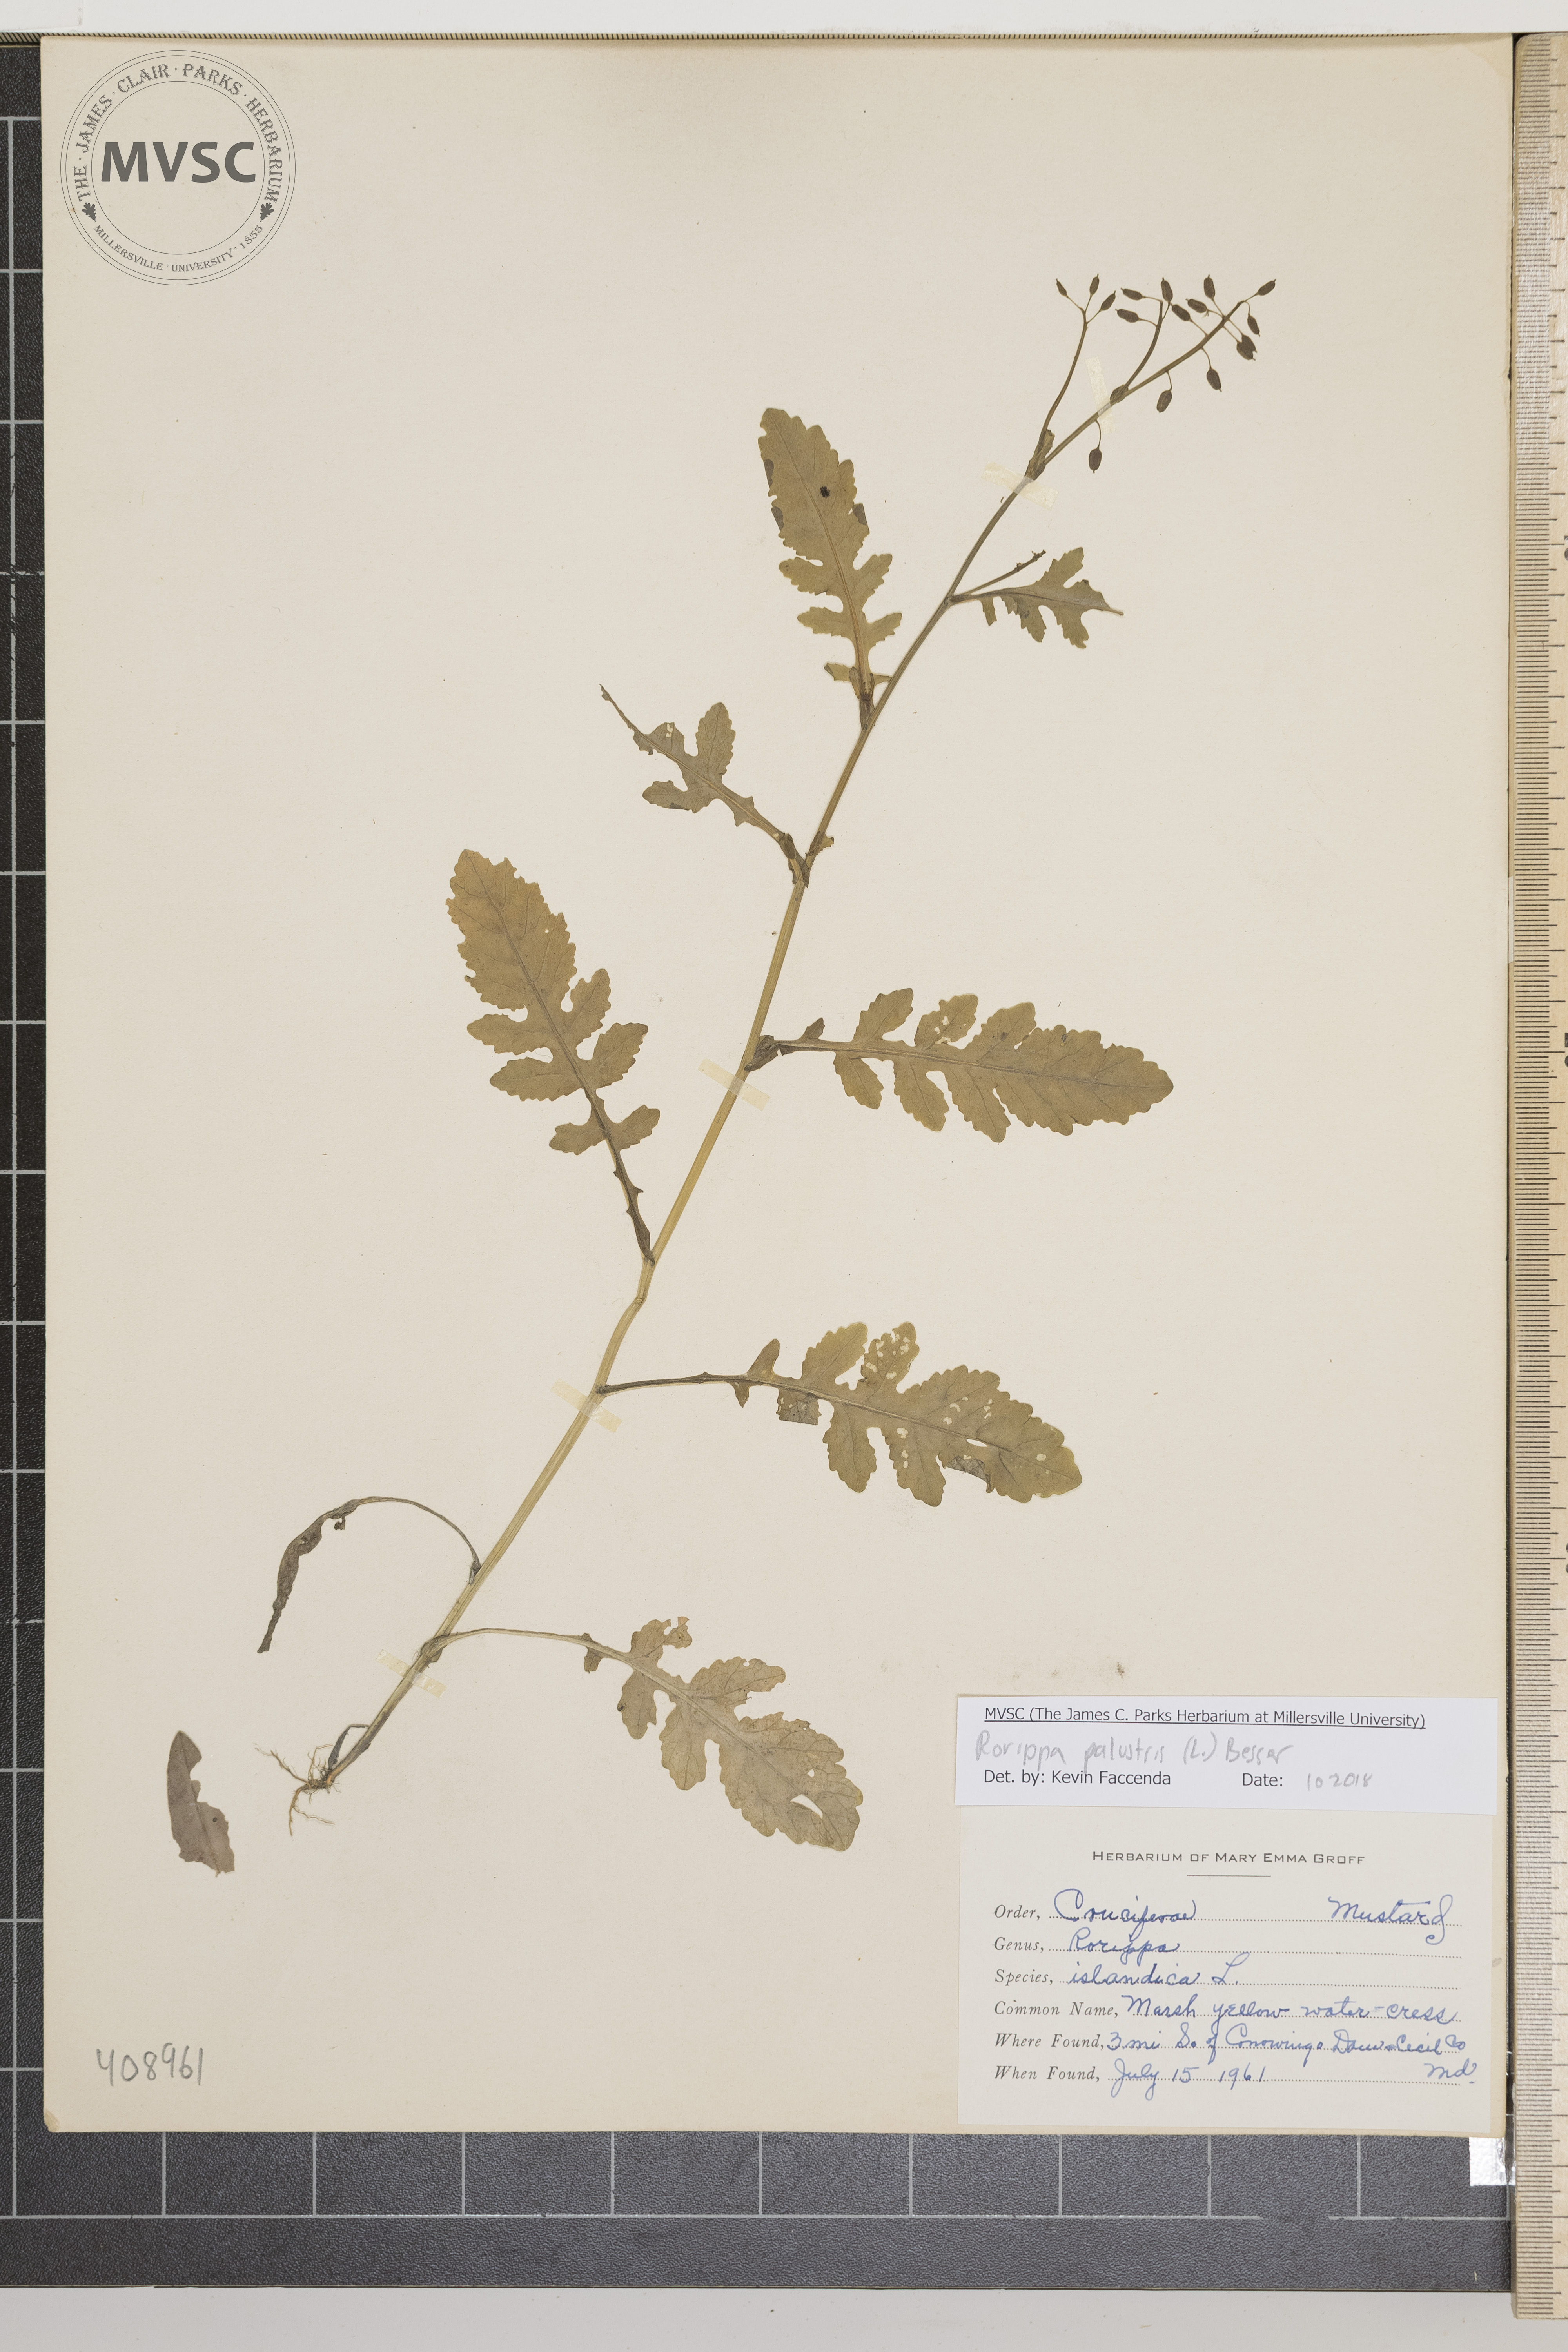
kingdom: Plantae
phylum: Tracheophyta
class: Magnoliopsida
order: Brassicales
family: Brassicaceae
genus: Rorippa
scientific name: Rorippa palustris
